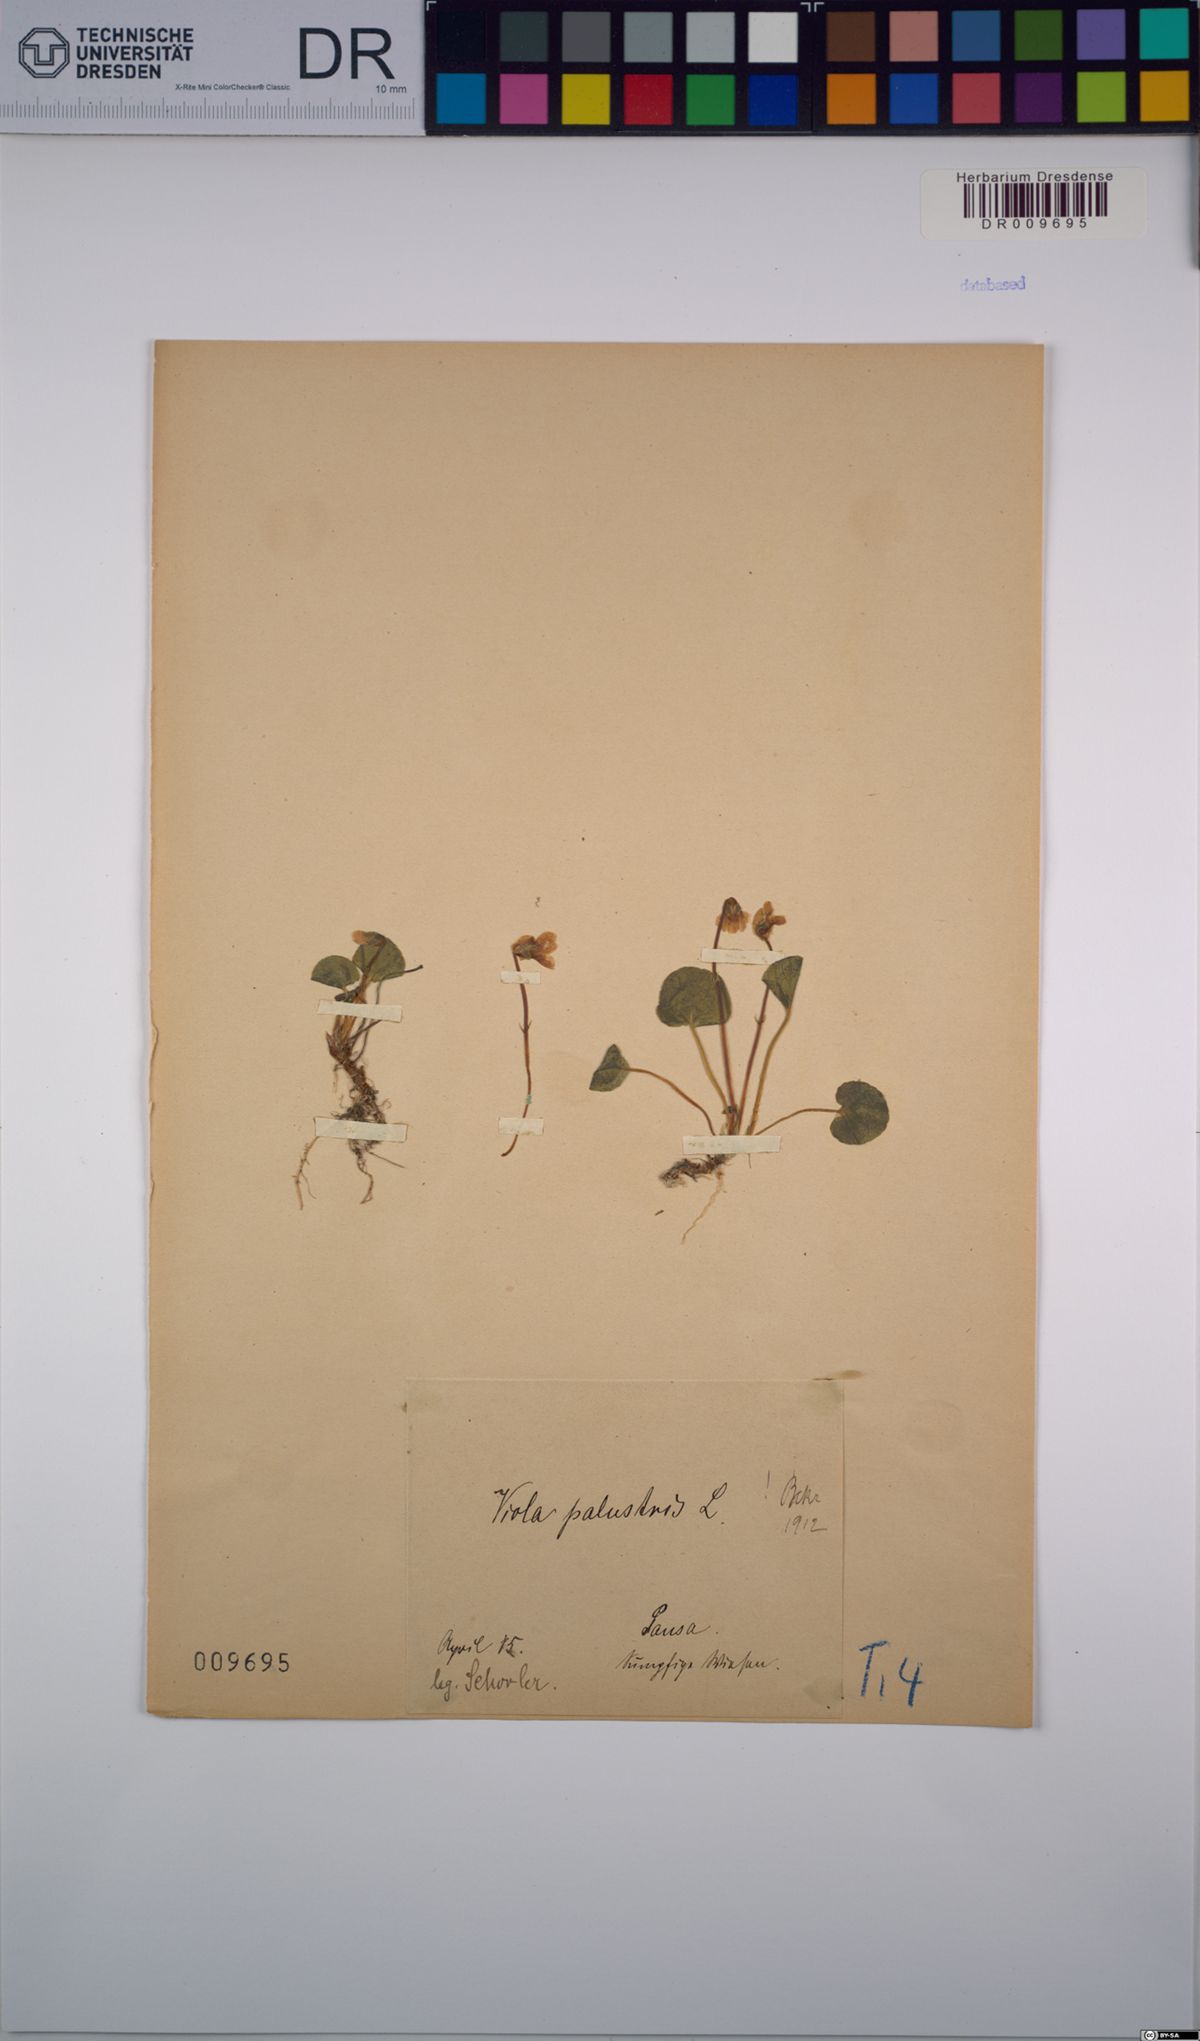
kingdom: Plantae
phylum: Tracheophyta
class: Magnoliopsida
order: Malpighiales
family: Violaceae
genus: Viola
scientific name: Viola palustris
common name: Marsh violet
